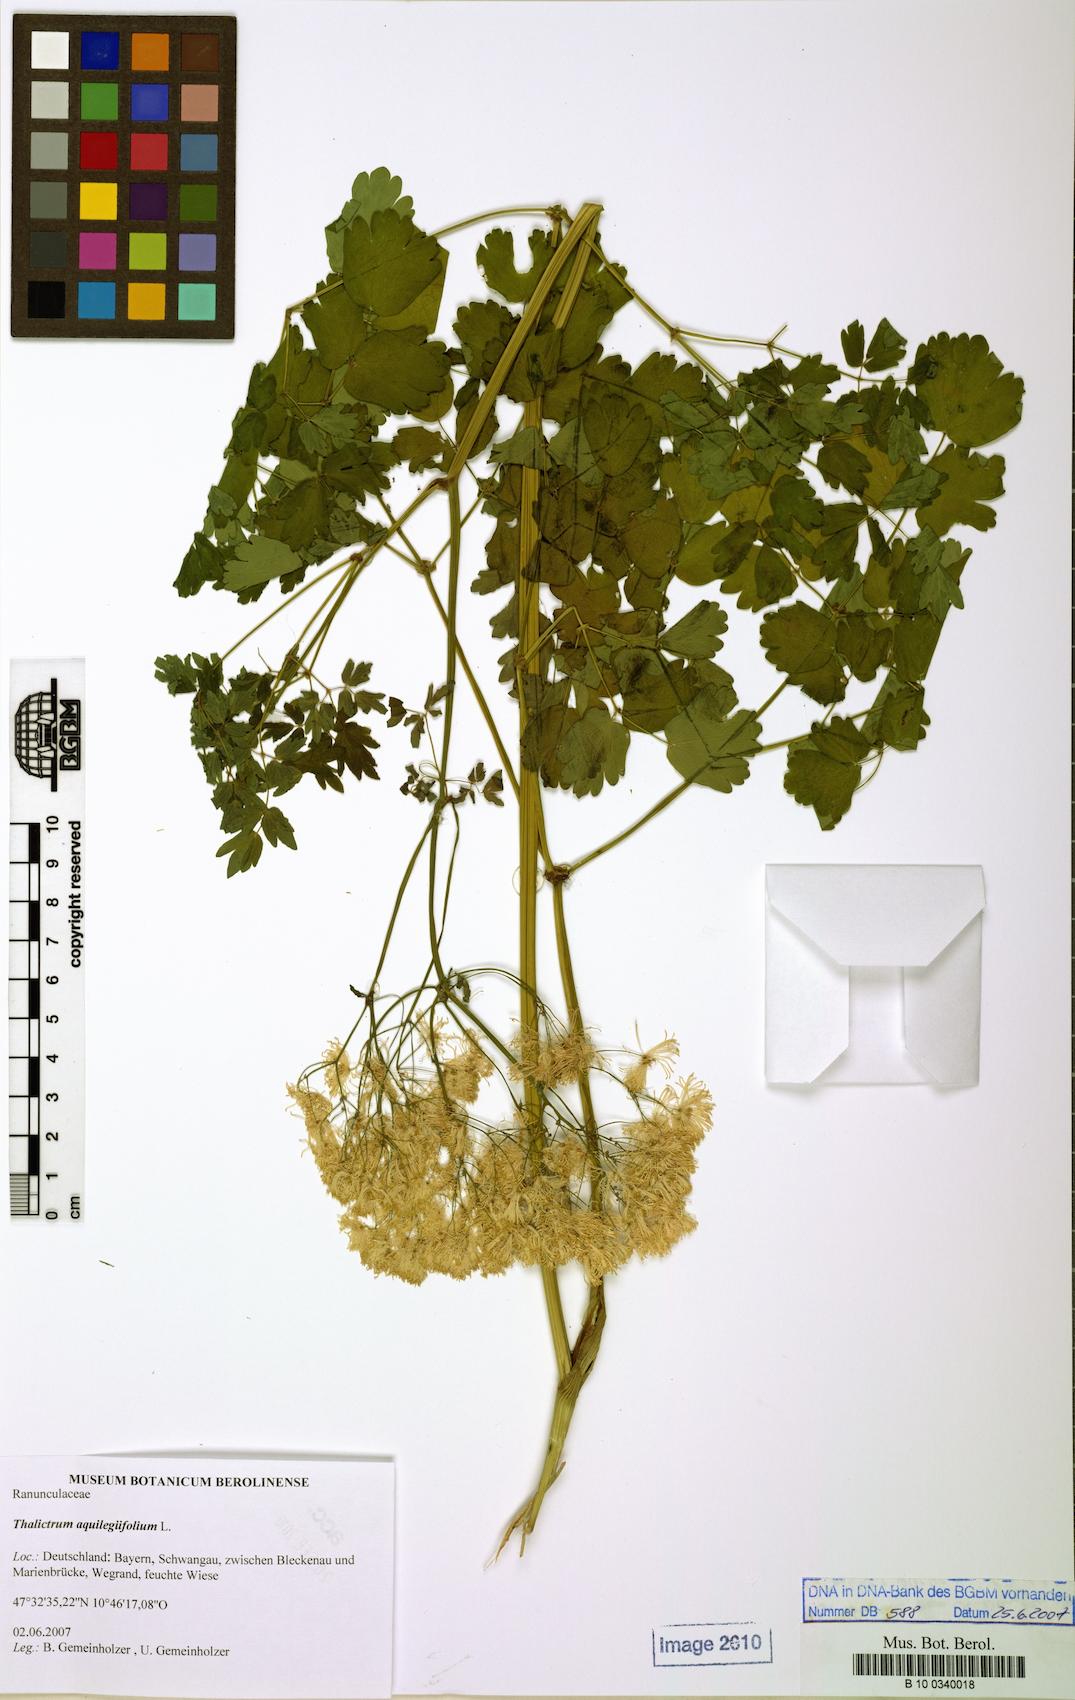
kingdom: Plantae
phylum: Tracheophyta
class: Magnoliopsida
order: Ranunculales
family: Ranunculaceae
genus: Thalictrum
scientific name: Thalictrum aquilegiifolium
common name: French meadow-rue
